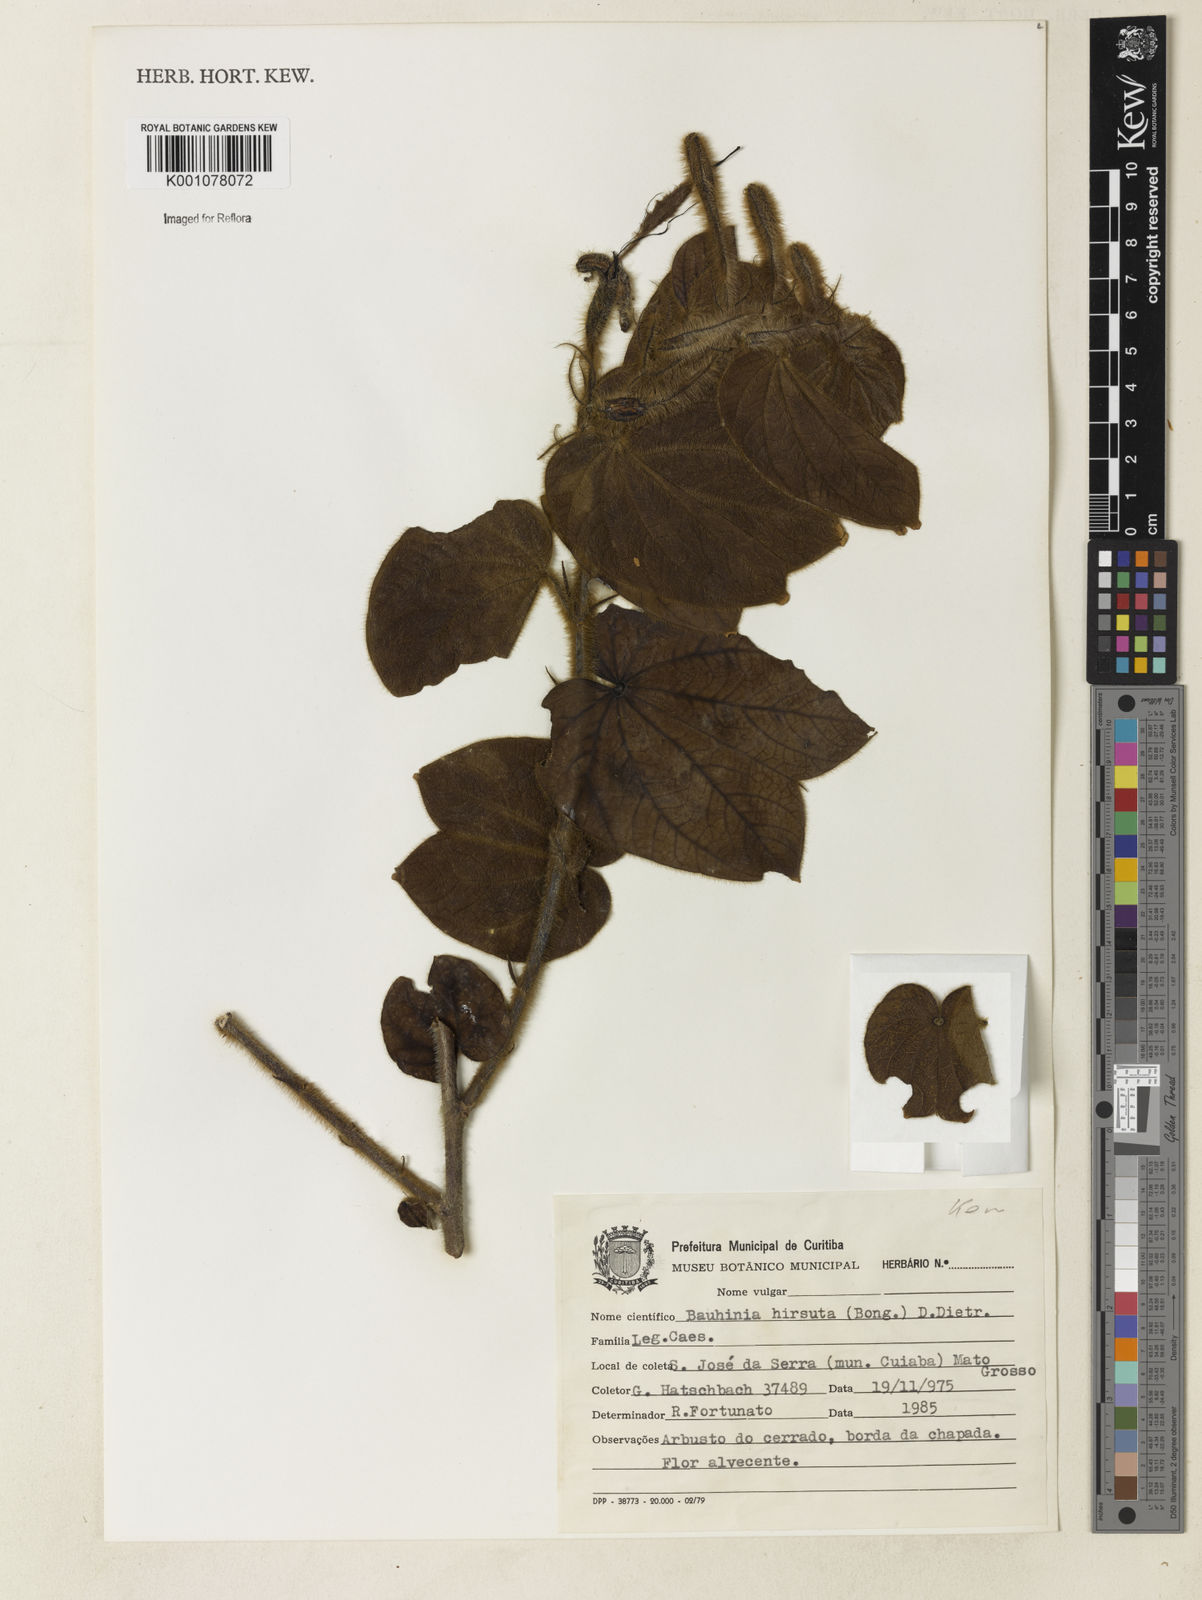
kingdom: Plantae
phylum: Tracheophyta
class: Magnoliopsida
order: Fabales
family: Fabaceae
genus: Bauhinia
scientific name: Bauhinia vespertilio
